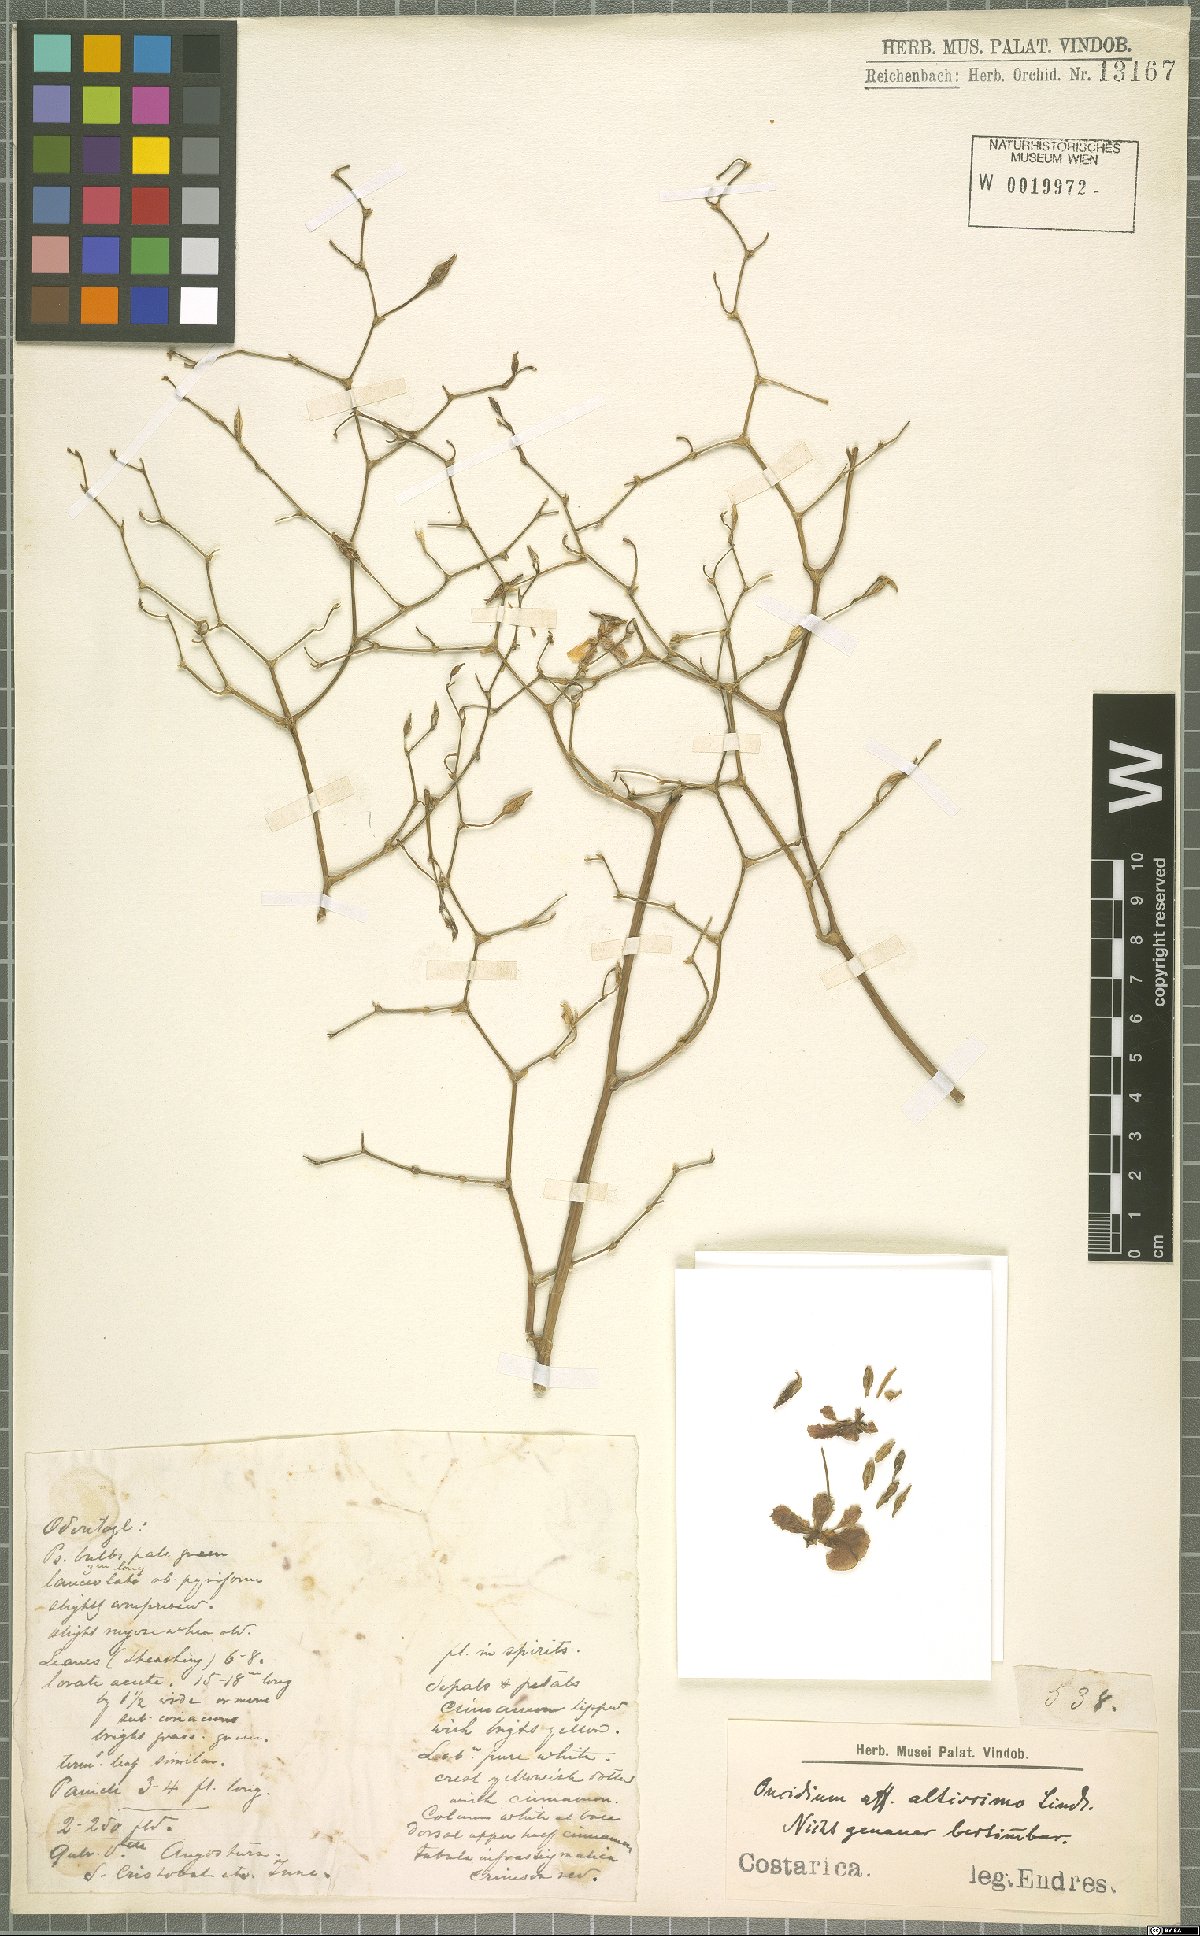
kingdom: Plantae
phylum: Tracheophyta
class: Liliopsida
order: Asparagales
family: Orchidaceae
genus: Oncidium
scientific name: Oncidium altissimum
